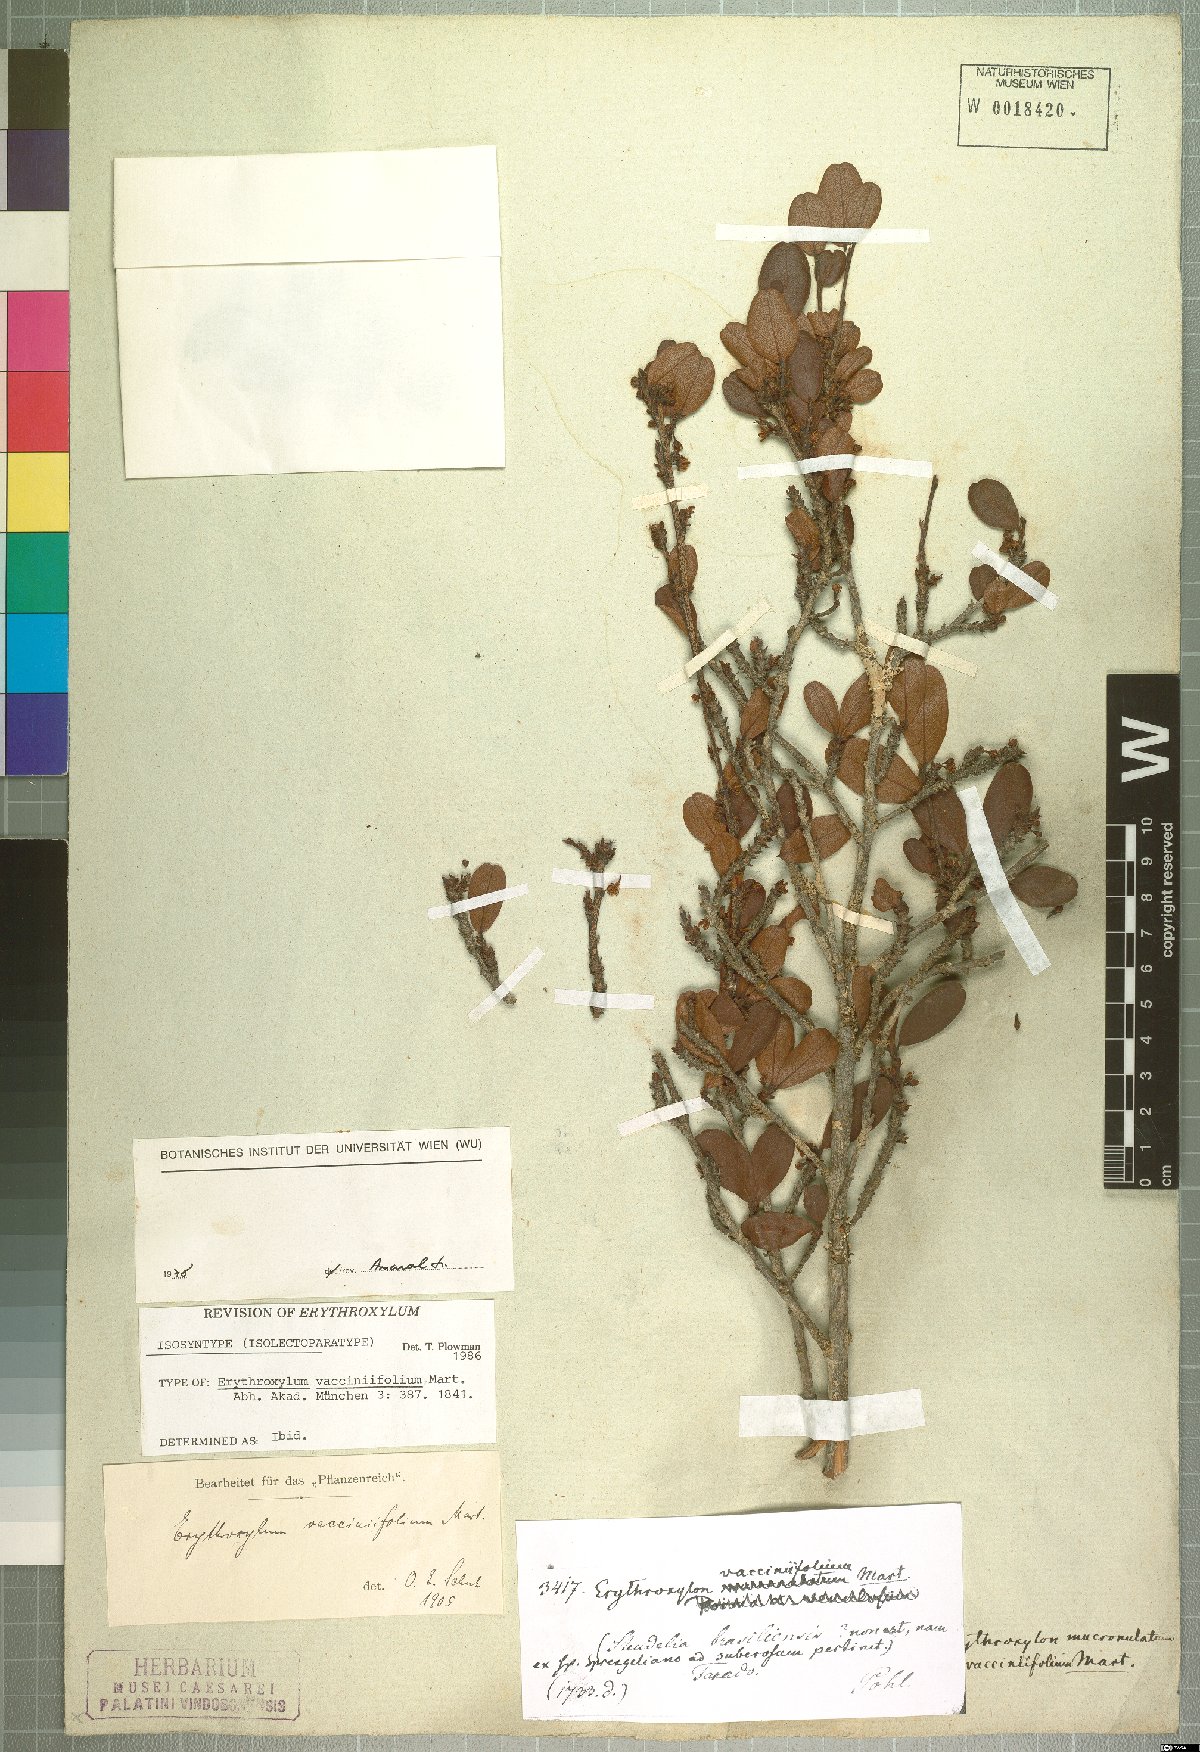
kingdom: Plantae
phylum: Tracheophyta
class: Magnoliopsida
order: Malpighiales
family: Erythroxylaceae
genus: Erythroxylum
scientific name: Erythroxylum vaccinifolium
